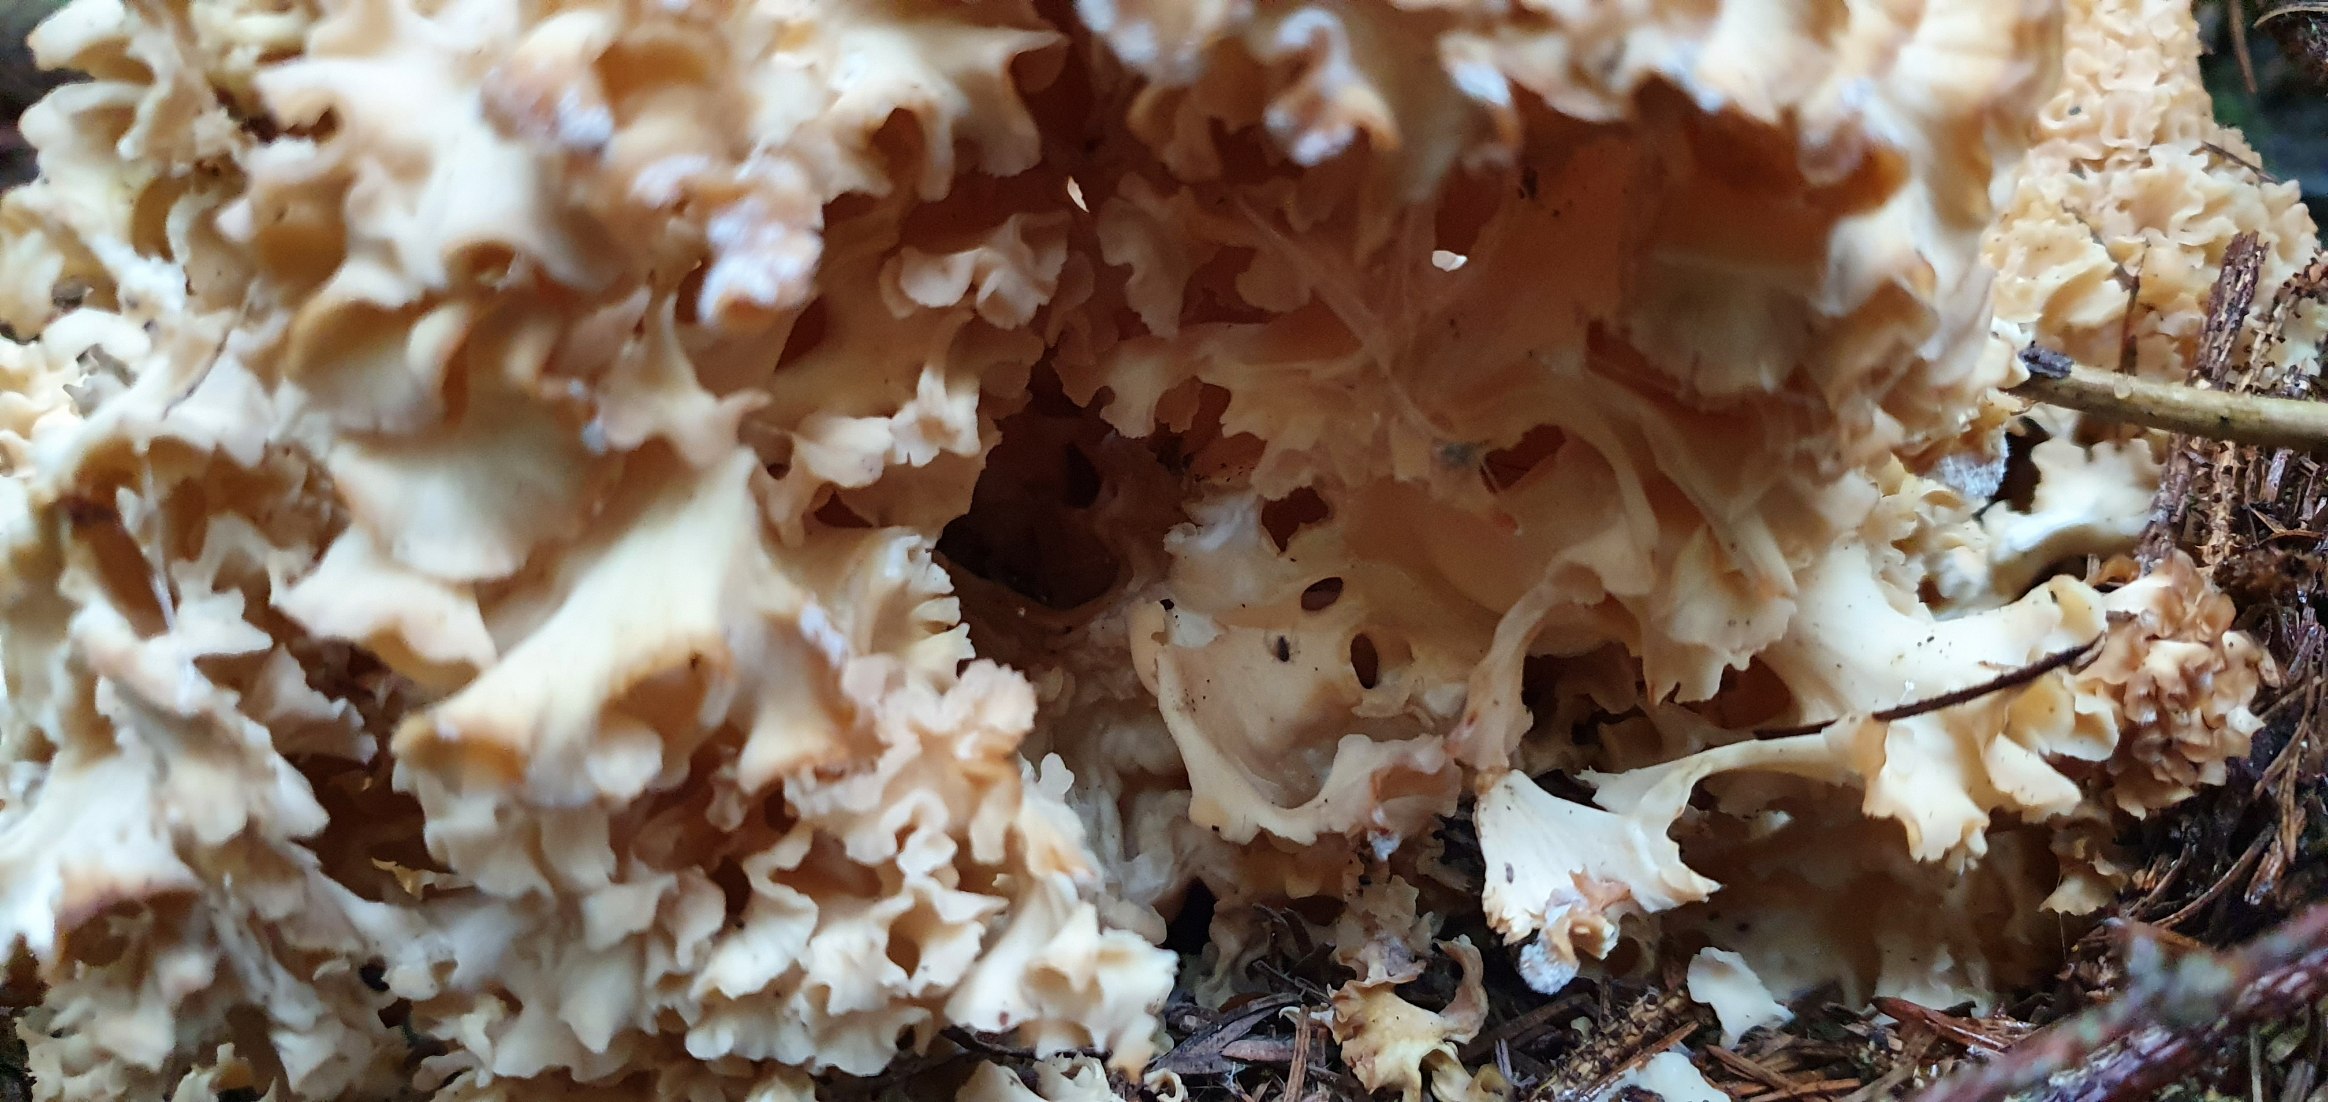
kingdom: Fungi
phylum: Basidiomycota
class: Agaricomycetes
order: Polyporales
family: Sparassidaceae
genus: Sparassis
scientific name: Sparassis crispa
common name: Kruset blomkålssvamp
